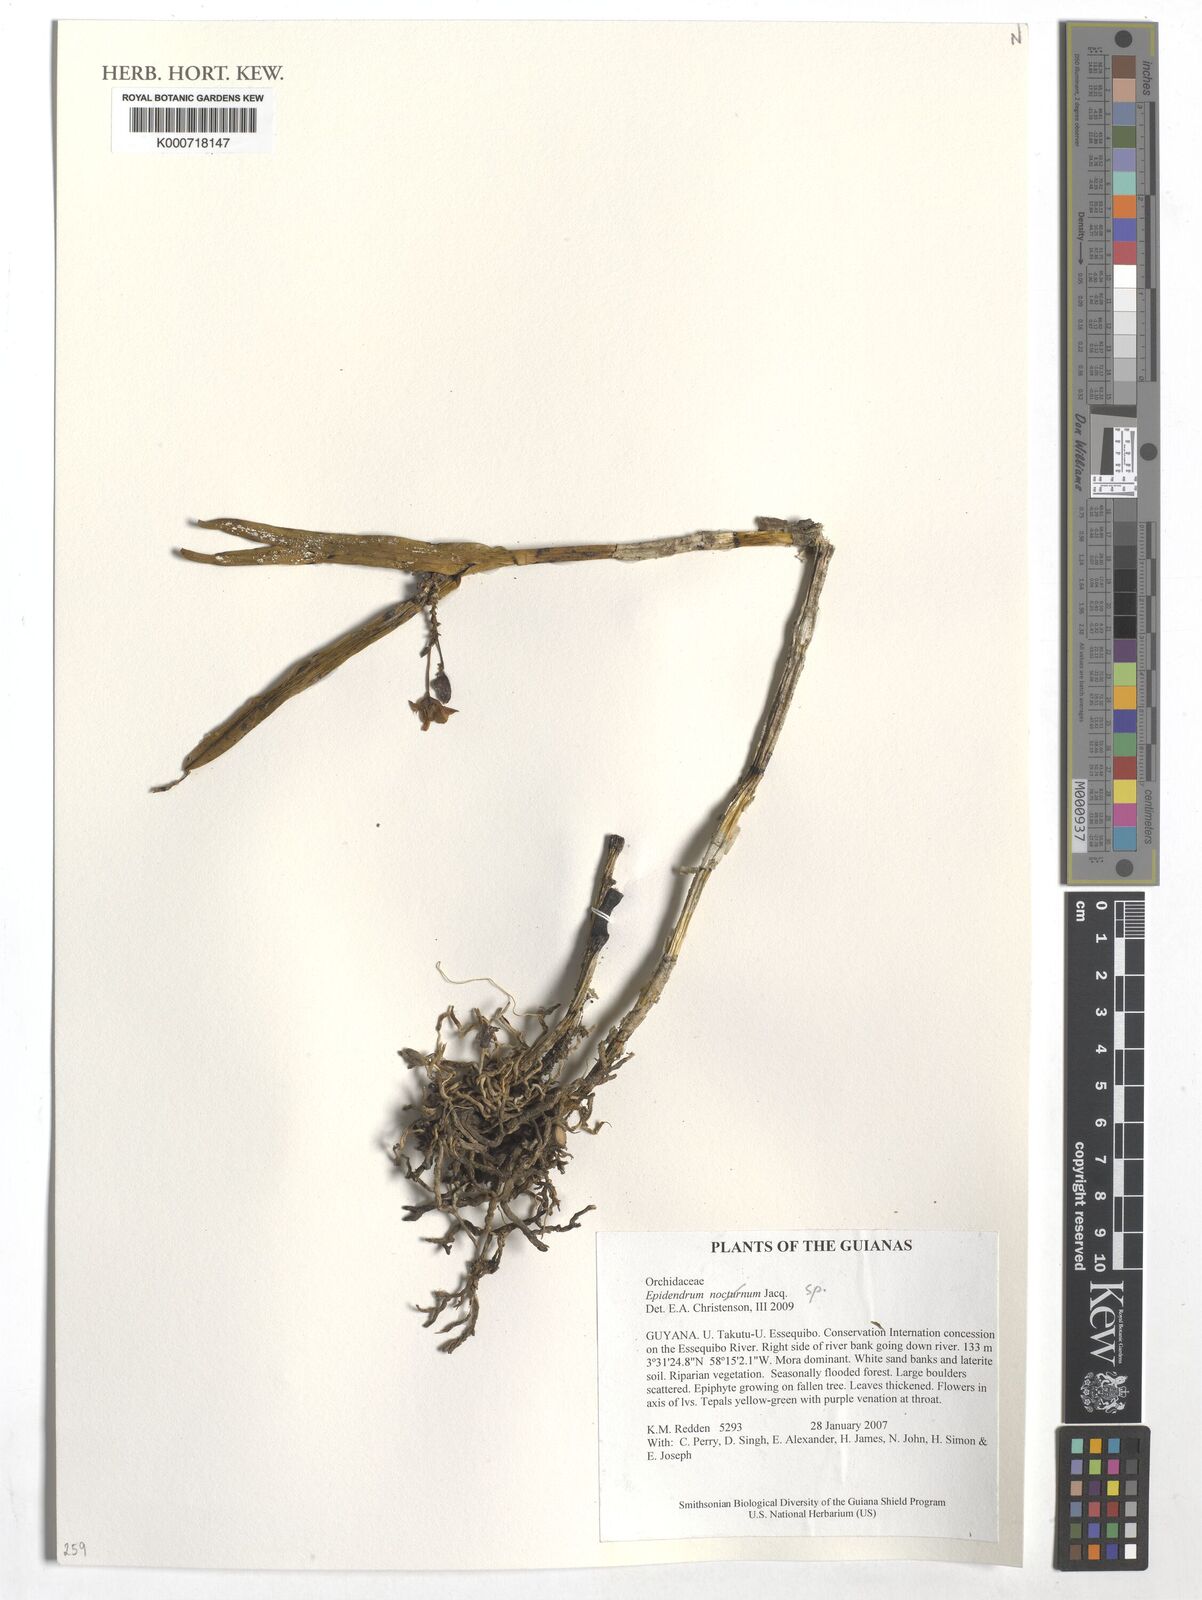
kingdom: Plantae
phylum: Tracheophyta
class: Liliopsida
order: Asparagales
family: Orchidaceae
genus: Epidendrum
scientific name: Epidendrum
